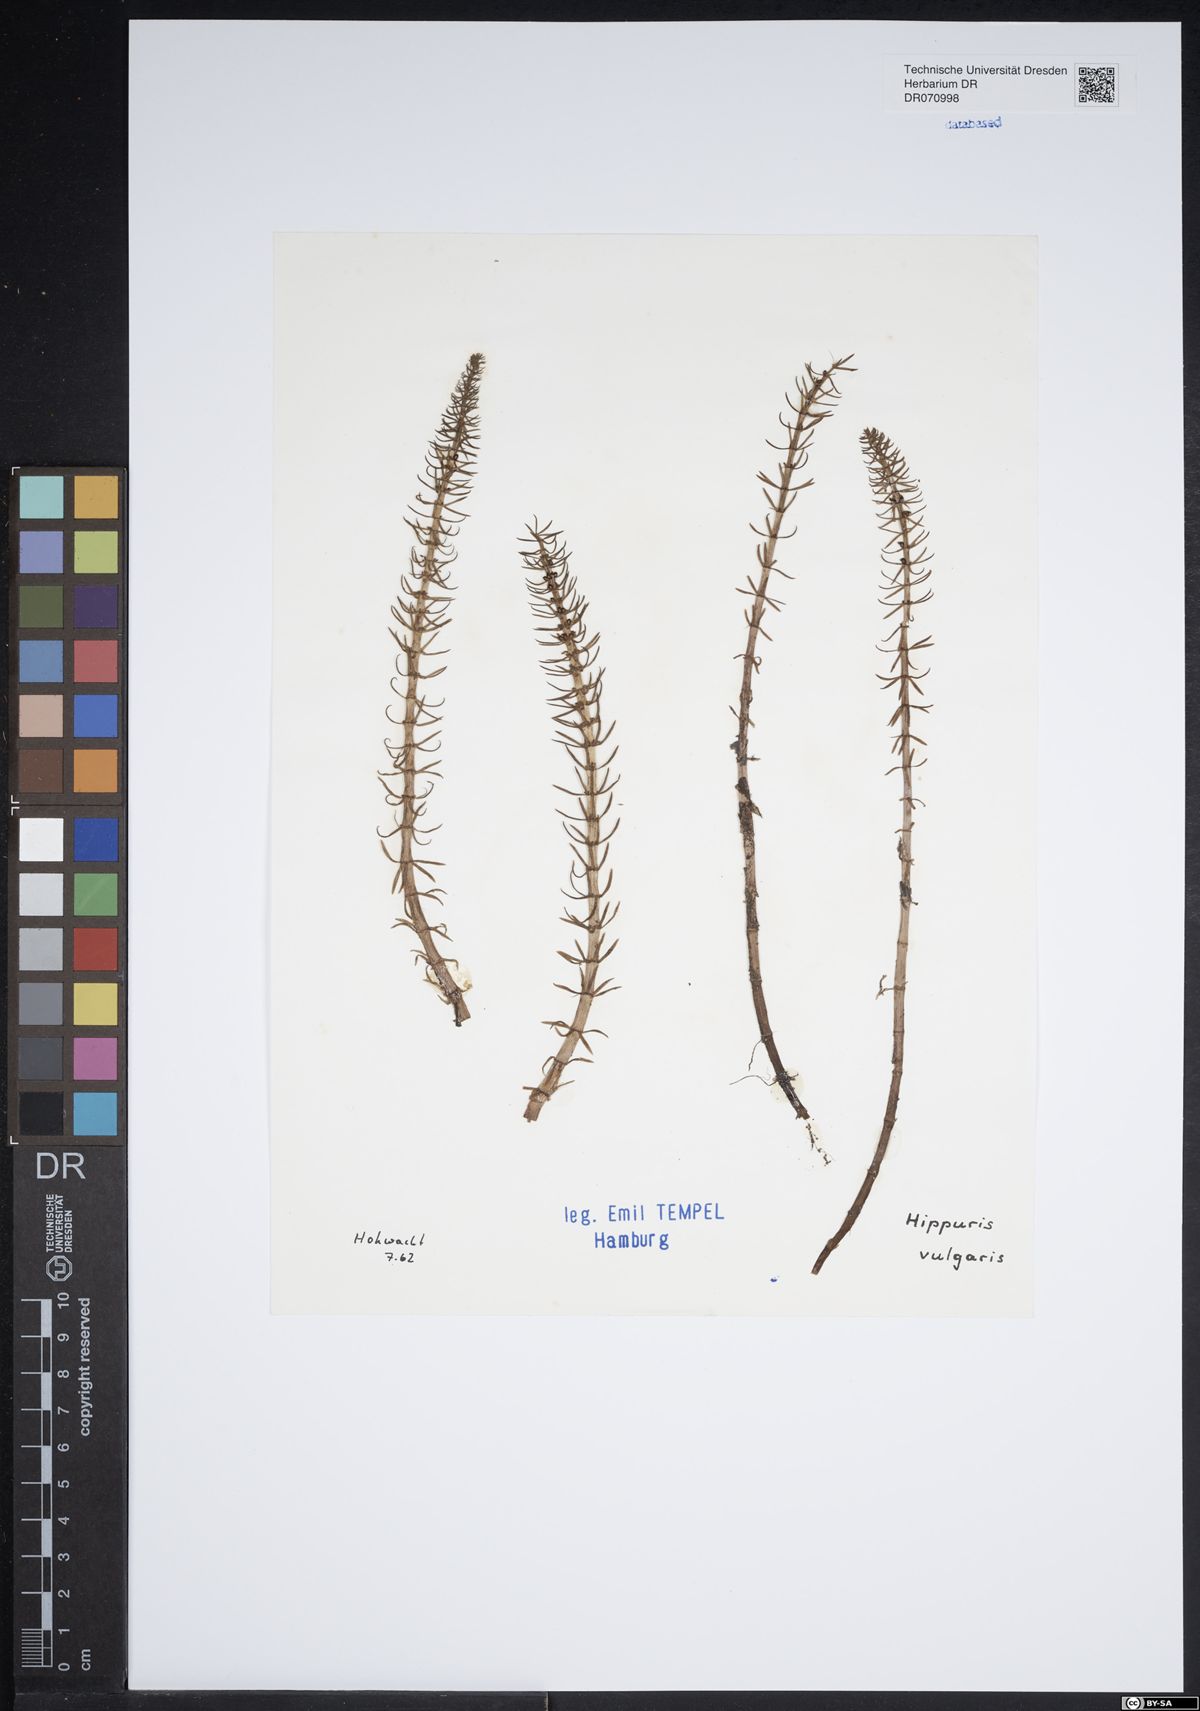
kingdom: Plantae
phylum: Tracheophyta
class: Magnoliopsida
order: Lamiales
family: Plantaginaceae
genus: Hippuris
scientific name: Hippuris vulgaris
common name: Mare's-tail
